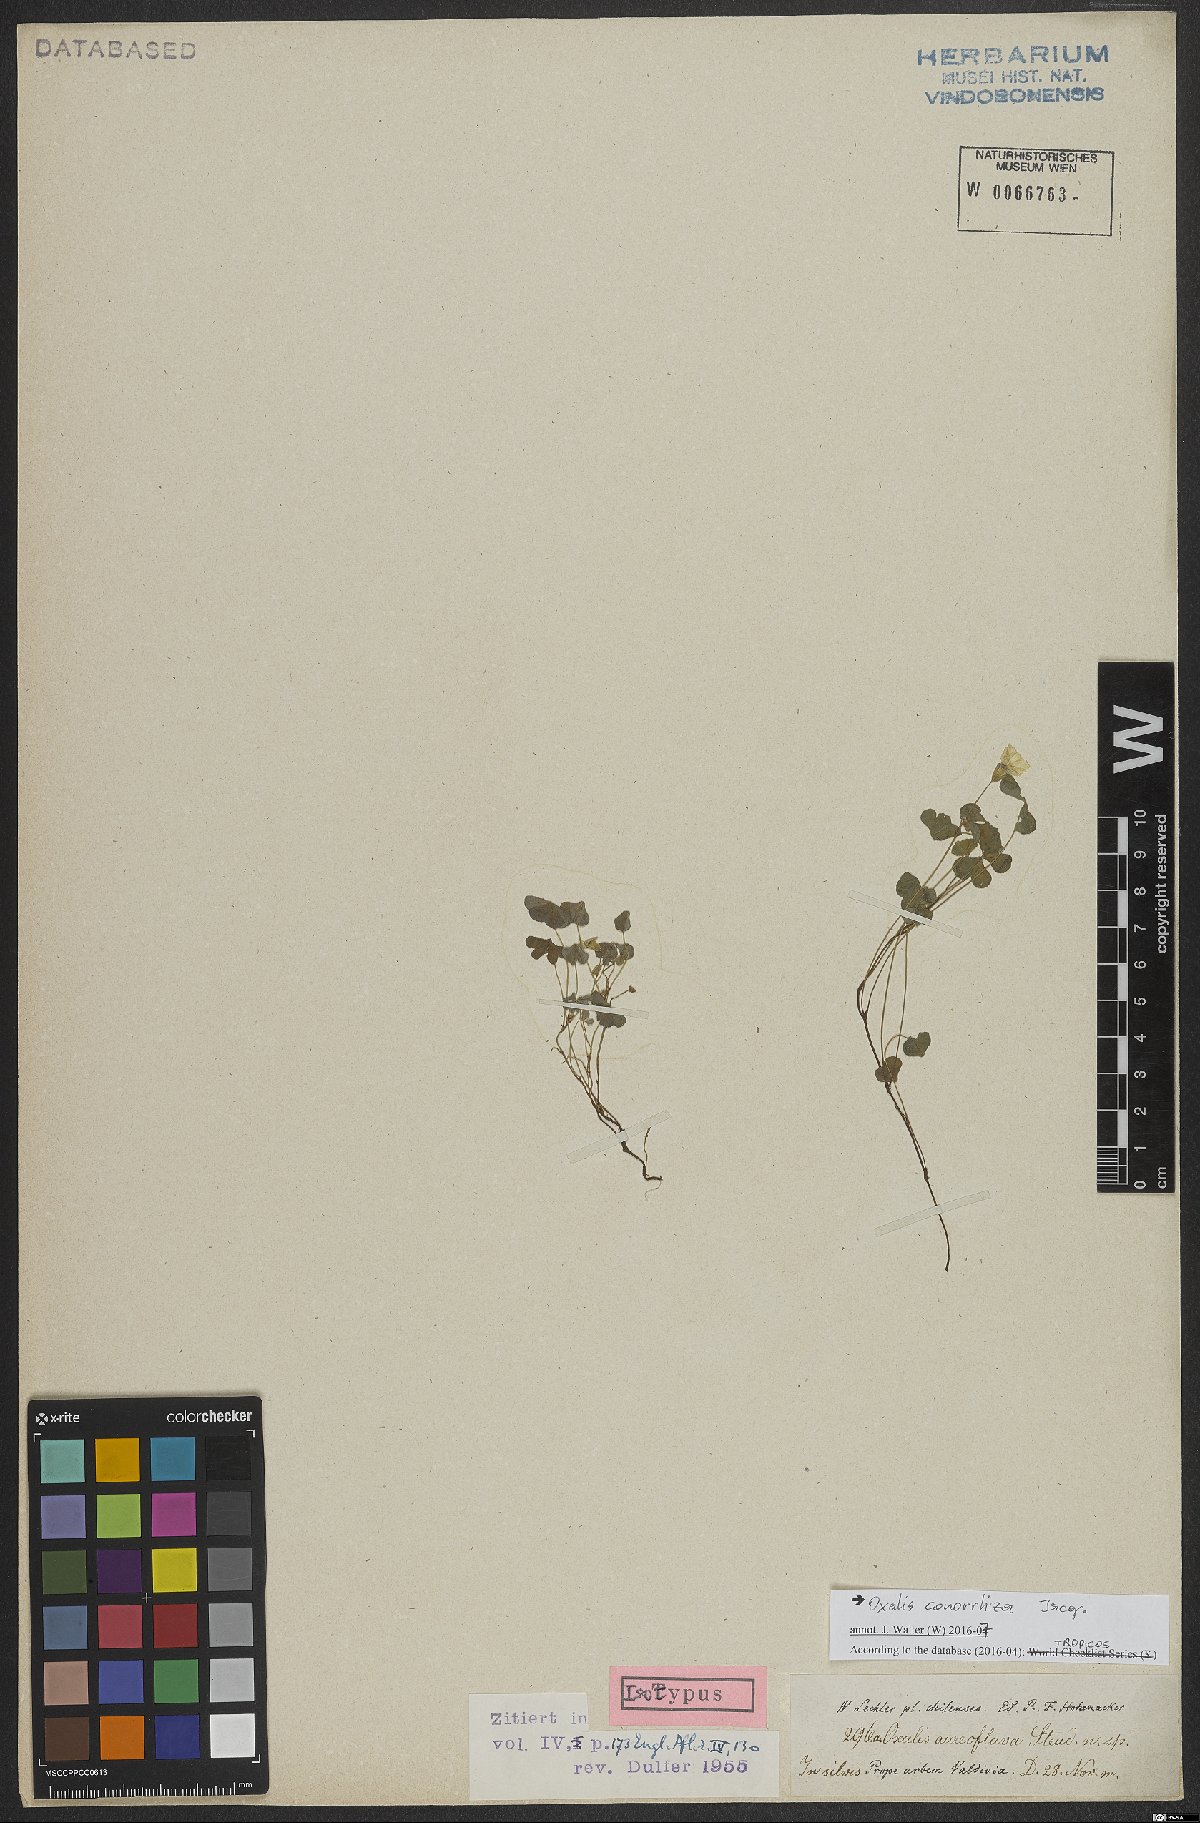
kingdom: Plantae
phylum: Tracheophyta
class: Magnoliopsida
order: Oxalidales
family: Oxalidaceae
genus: Oxalis
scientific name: Oxalis conorrhiza
